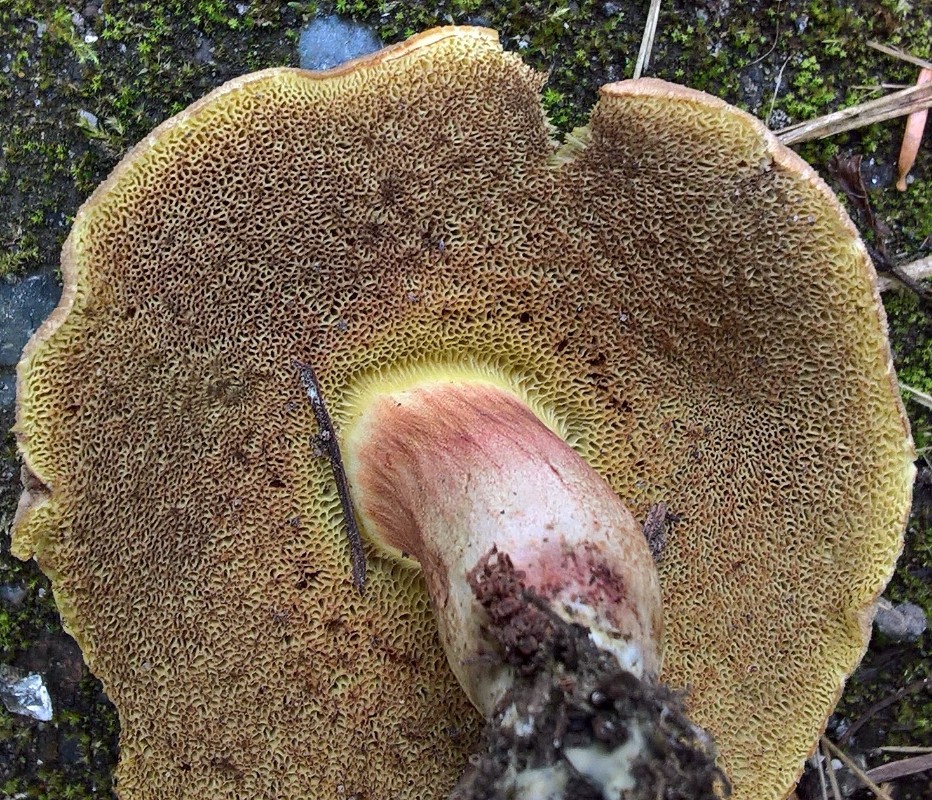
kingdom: Fungi
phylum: Basidiomycota
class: Agaricomycetes
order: Boletales
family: Boletaceae
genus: Xerocomellus
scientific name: Xerocomellus chrysenteron
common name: rødsprukken rørhat
